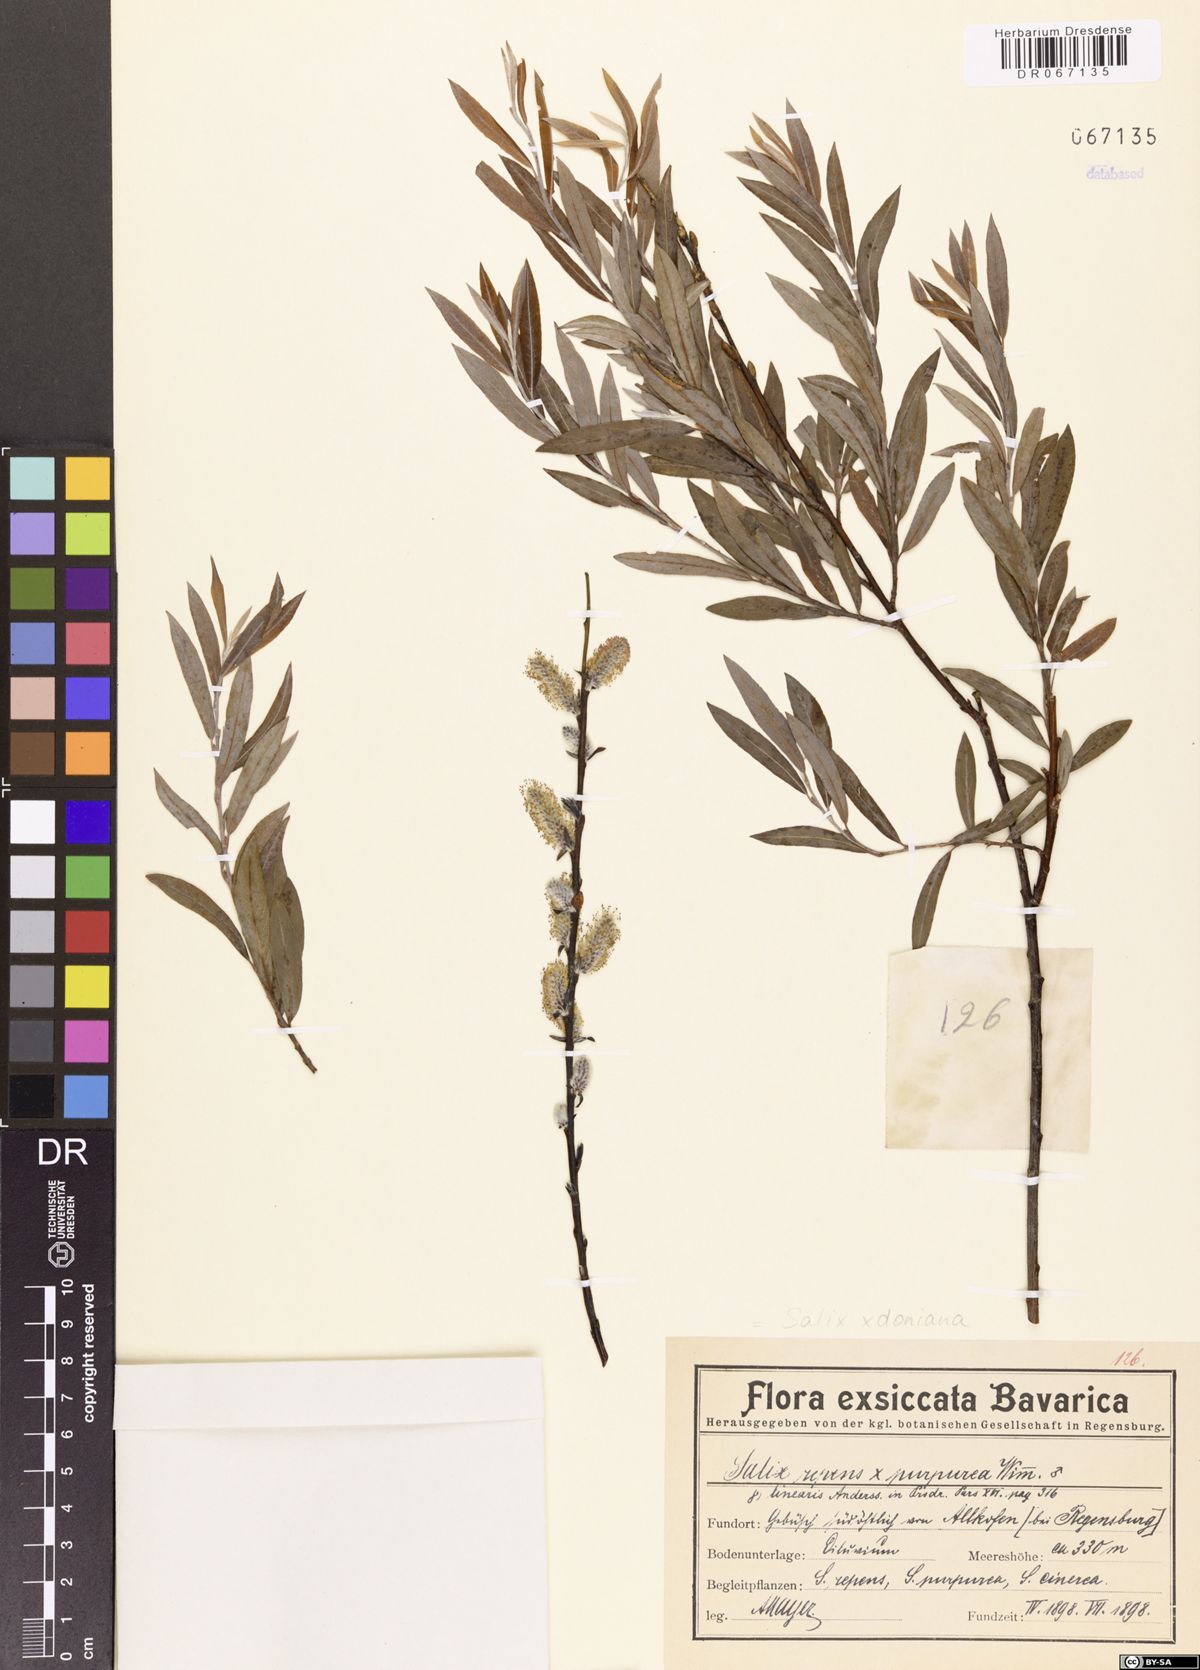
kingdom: Plantae
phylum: Tracheophyta
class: Magnoliopsida
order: Malpighiales
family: Salicaceae
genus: Salix
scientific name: Salix doniana
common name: Donian willow
